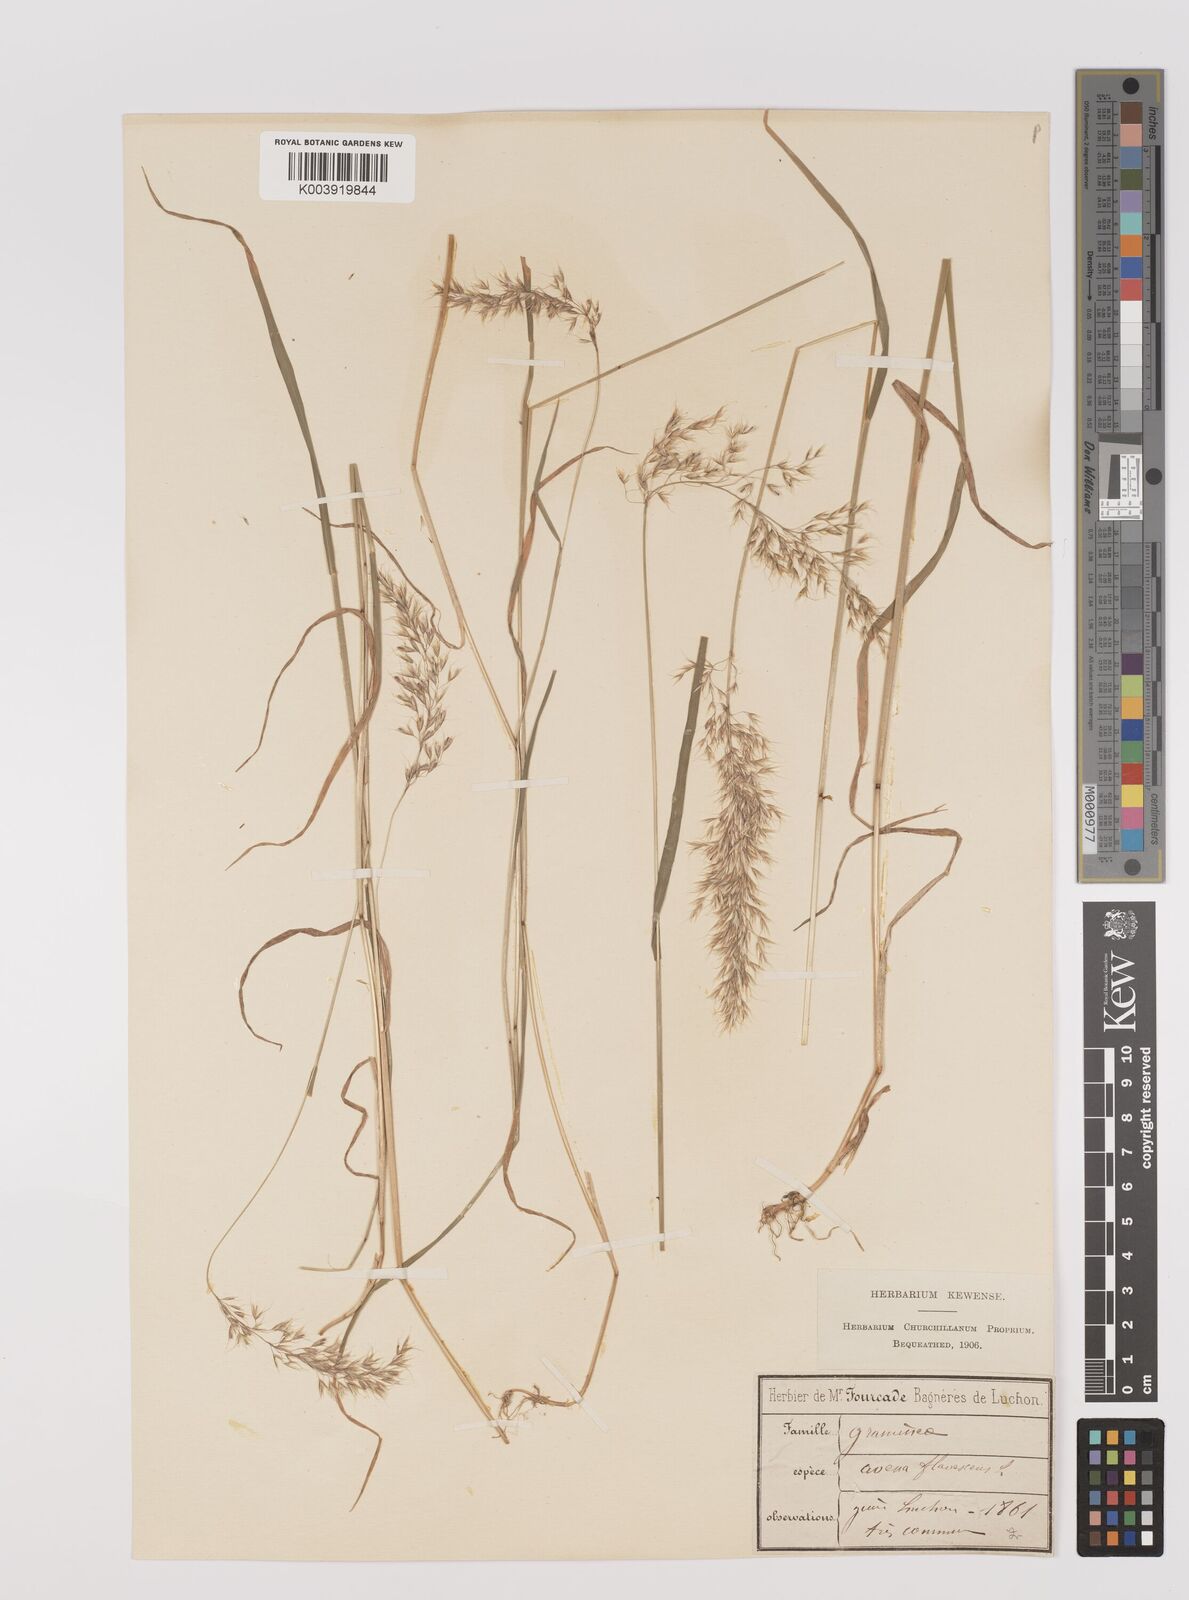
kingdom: Plantae
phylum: Tracheophyta
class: Liliopsida
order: Poales
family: Poaceae
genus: Trisetum
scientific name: Trisetum flavescens
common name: Yellow oat-grass
